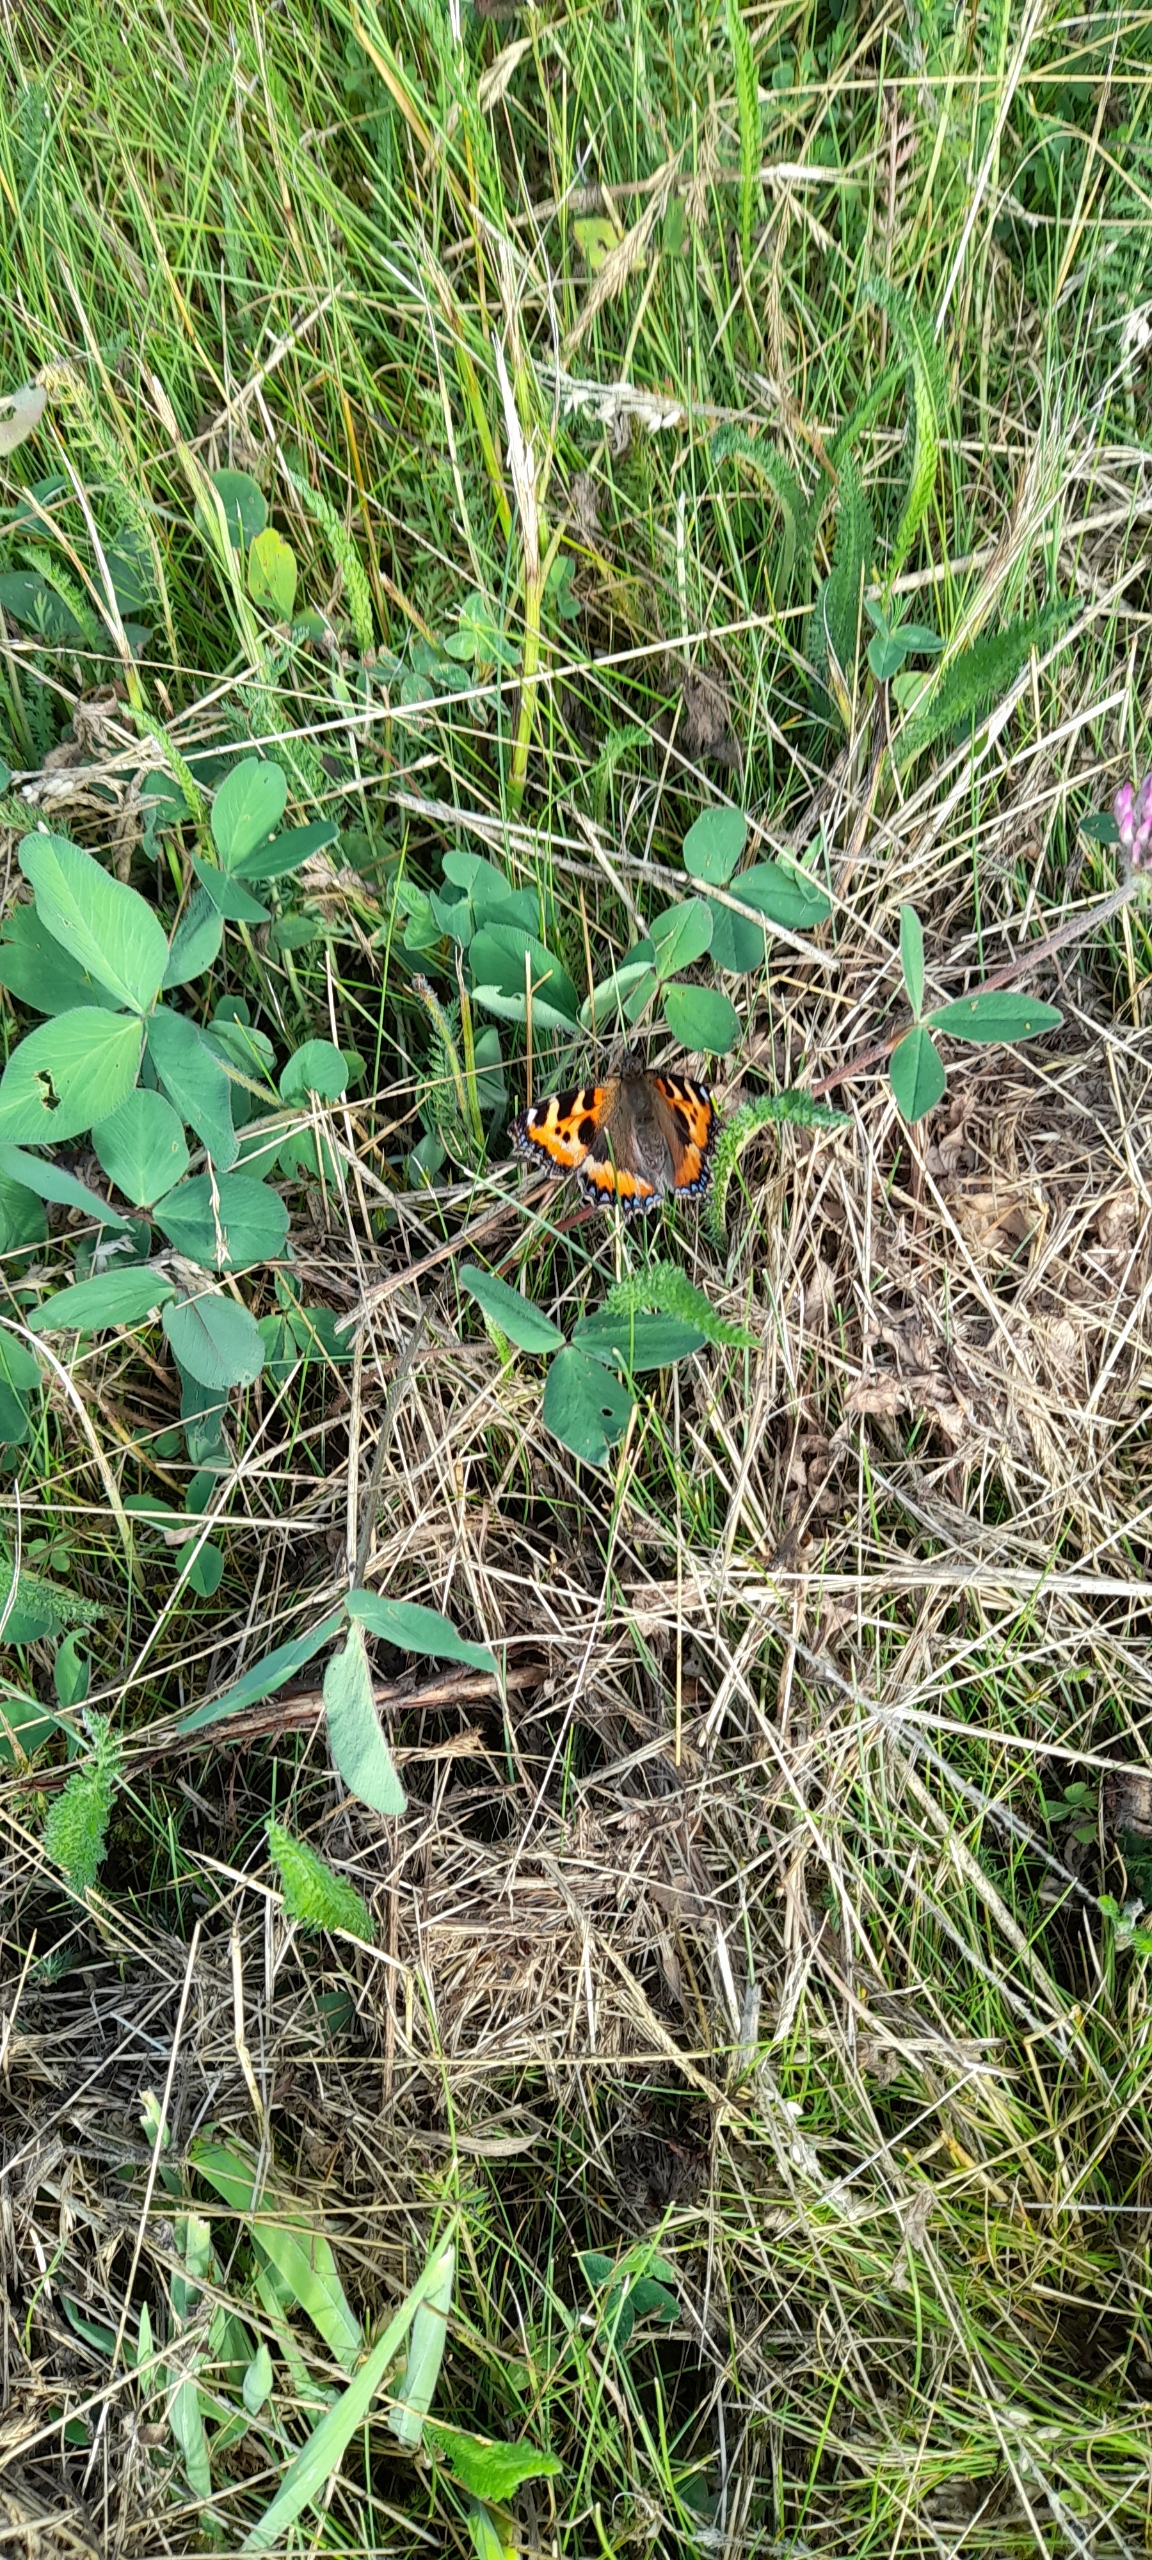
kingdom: Animalia
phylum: Arthropoda
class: Insecta
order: Lepidoptera
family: Nymphalidae
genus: Aglais
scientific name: Aglais urticae
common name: Nældens takvinge
